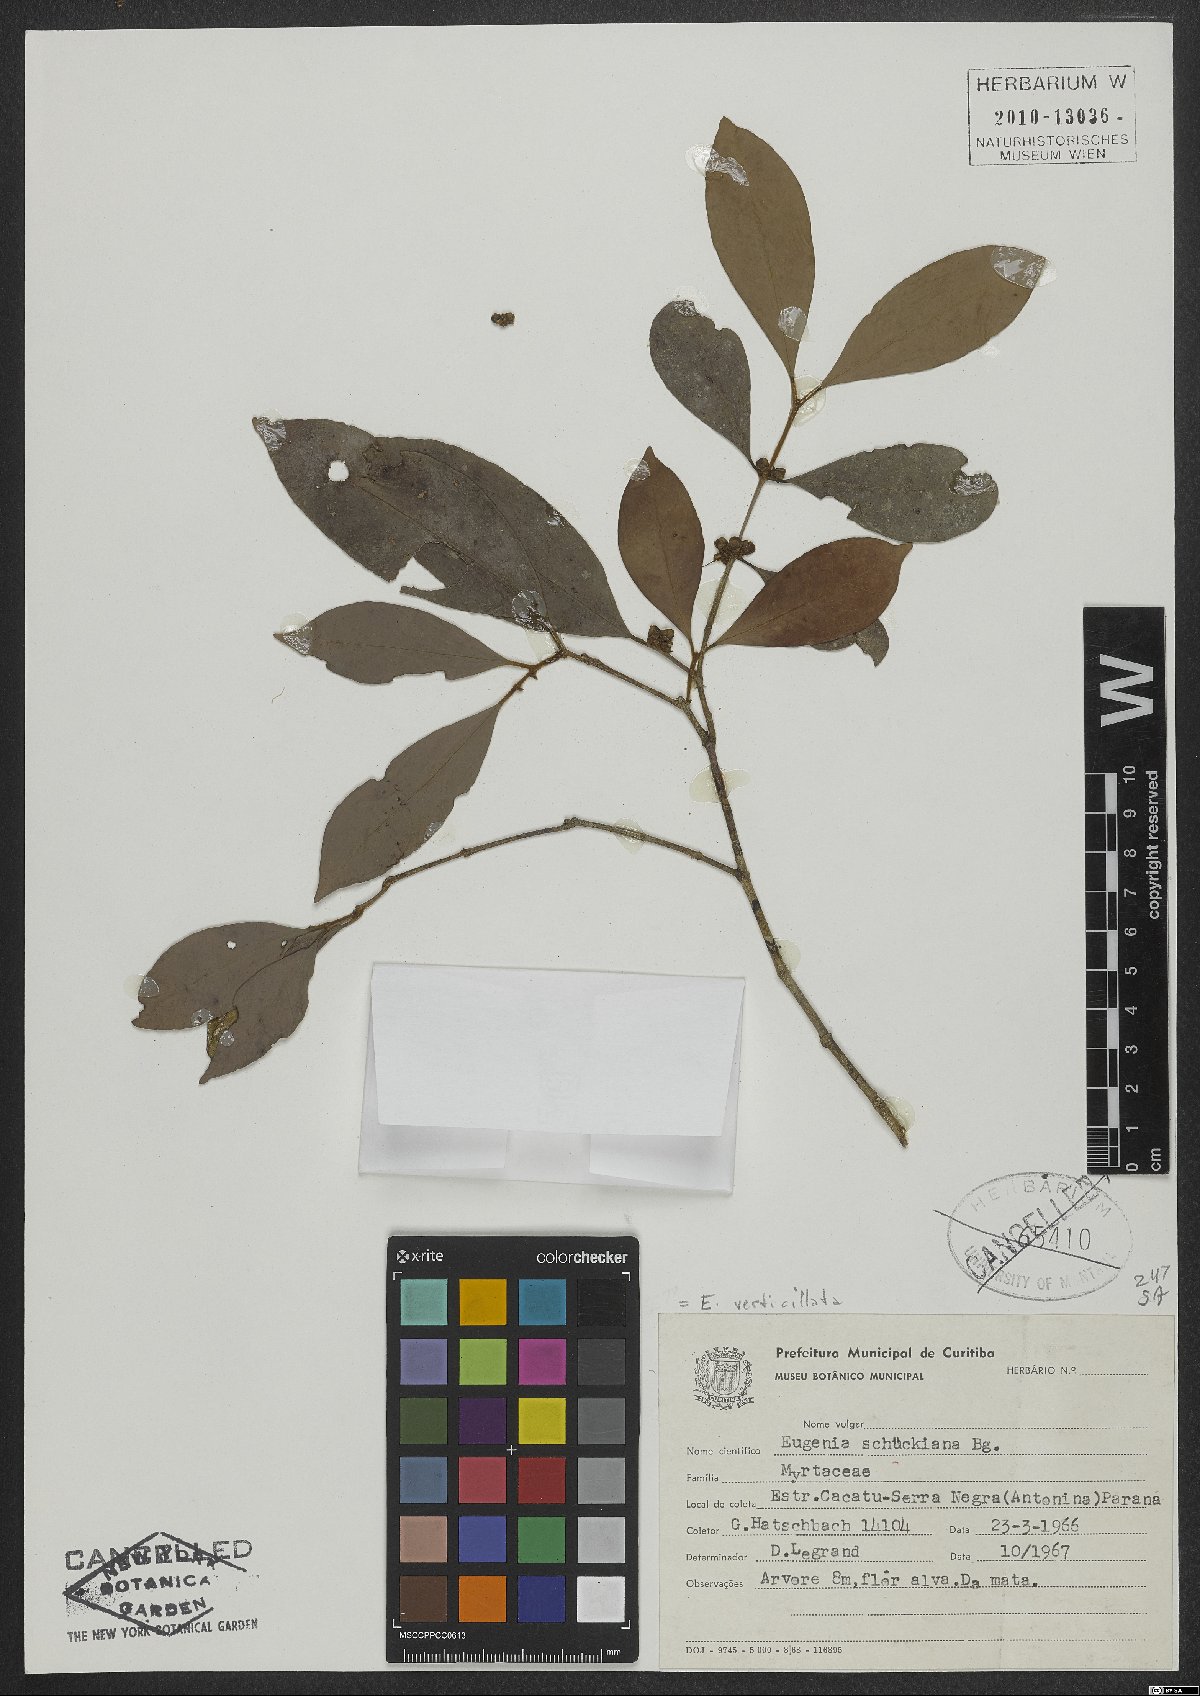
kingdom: Plantae
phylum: Tracheophyta
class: Magnoliopsida
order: Myrtales
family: Myrtaceae
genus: Eugenia
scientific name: Eugenia verticillata
